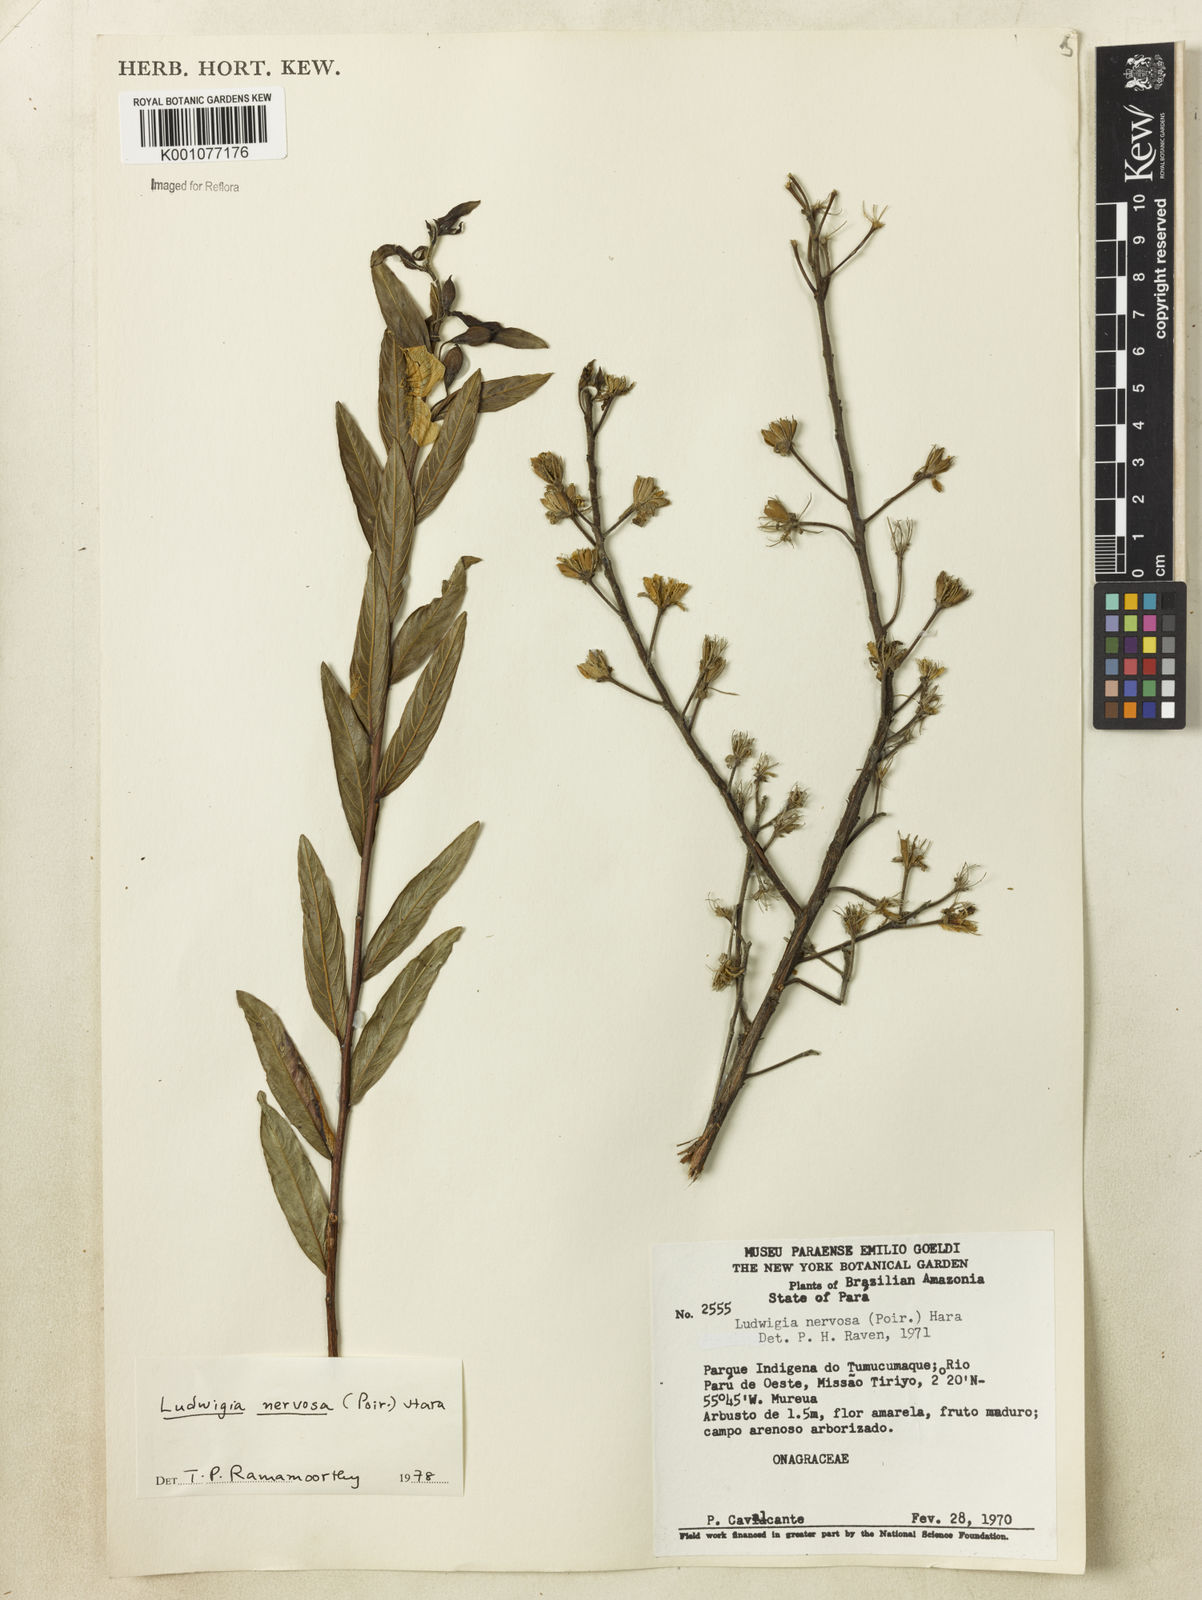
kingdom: Plantae
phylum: Tracheophyta
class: Magnoliopsida
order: Myrtales
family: Onagraceae
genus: Ludwigia
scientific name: Ludwigia nervosa
